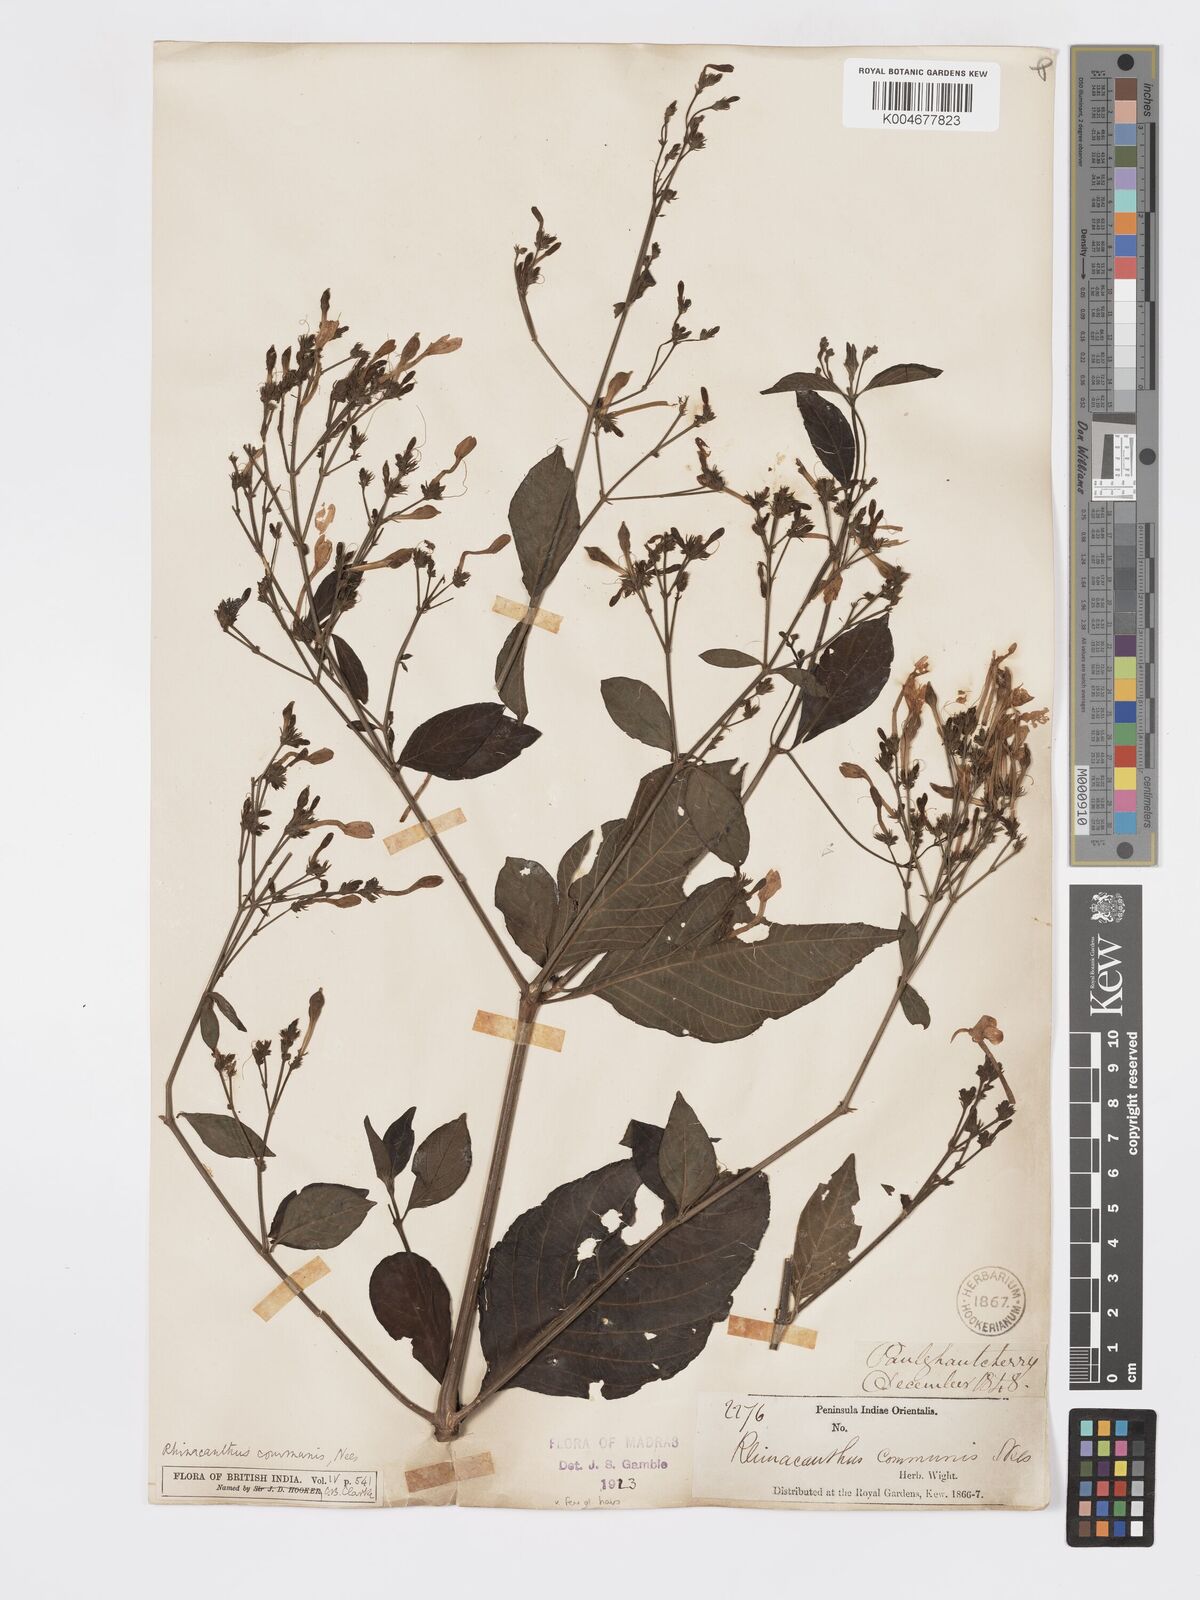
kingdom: Plantae
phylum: Tracheophyta
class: Magnoliopsida
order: Lamiales
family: Acanthaceae
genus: Rhinacanthus
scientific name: Rhinacanthus nasutus
